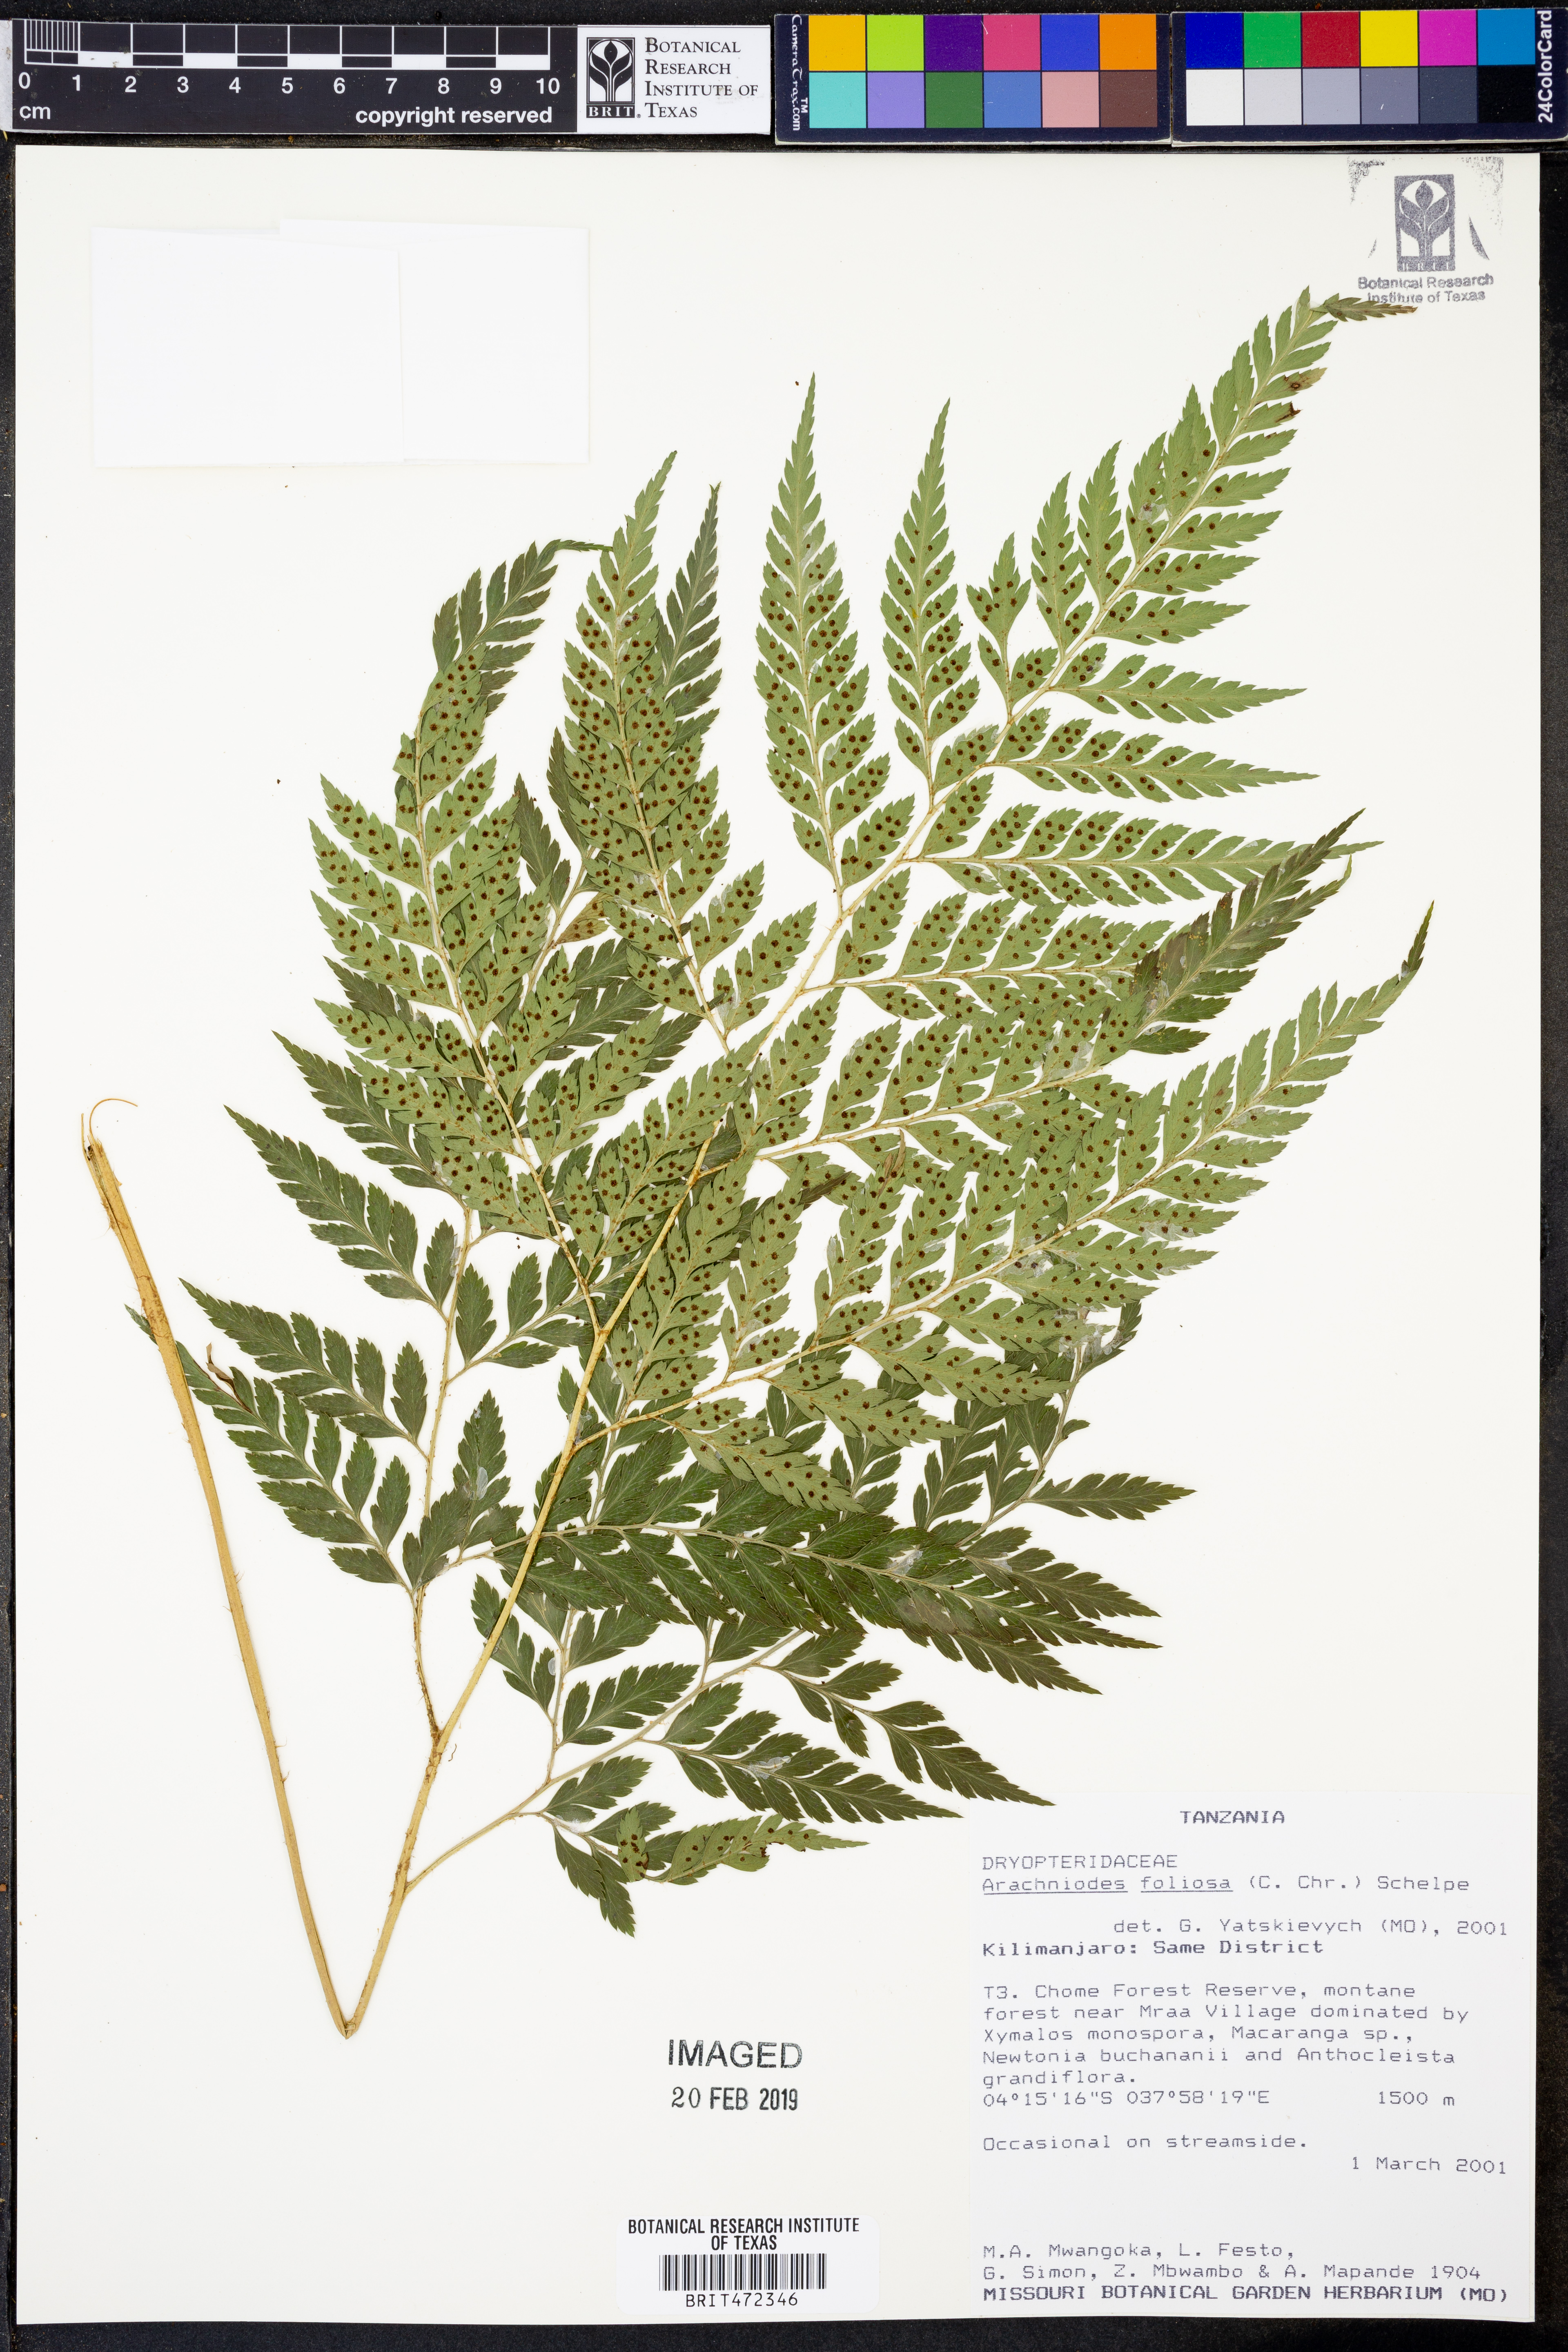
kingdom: Plantae
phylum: Tracheophyta
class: Polypodiopsida
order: Polypodiales
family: Dryopteridaceae
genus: Arachniodes
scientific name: Arachniodes webbiana
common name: Madeira holly fern
